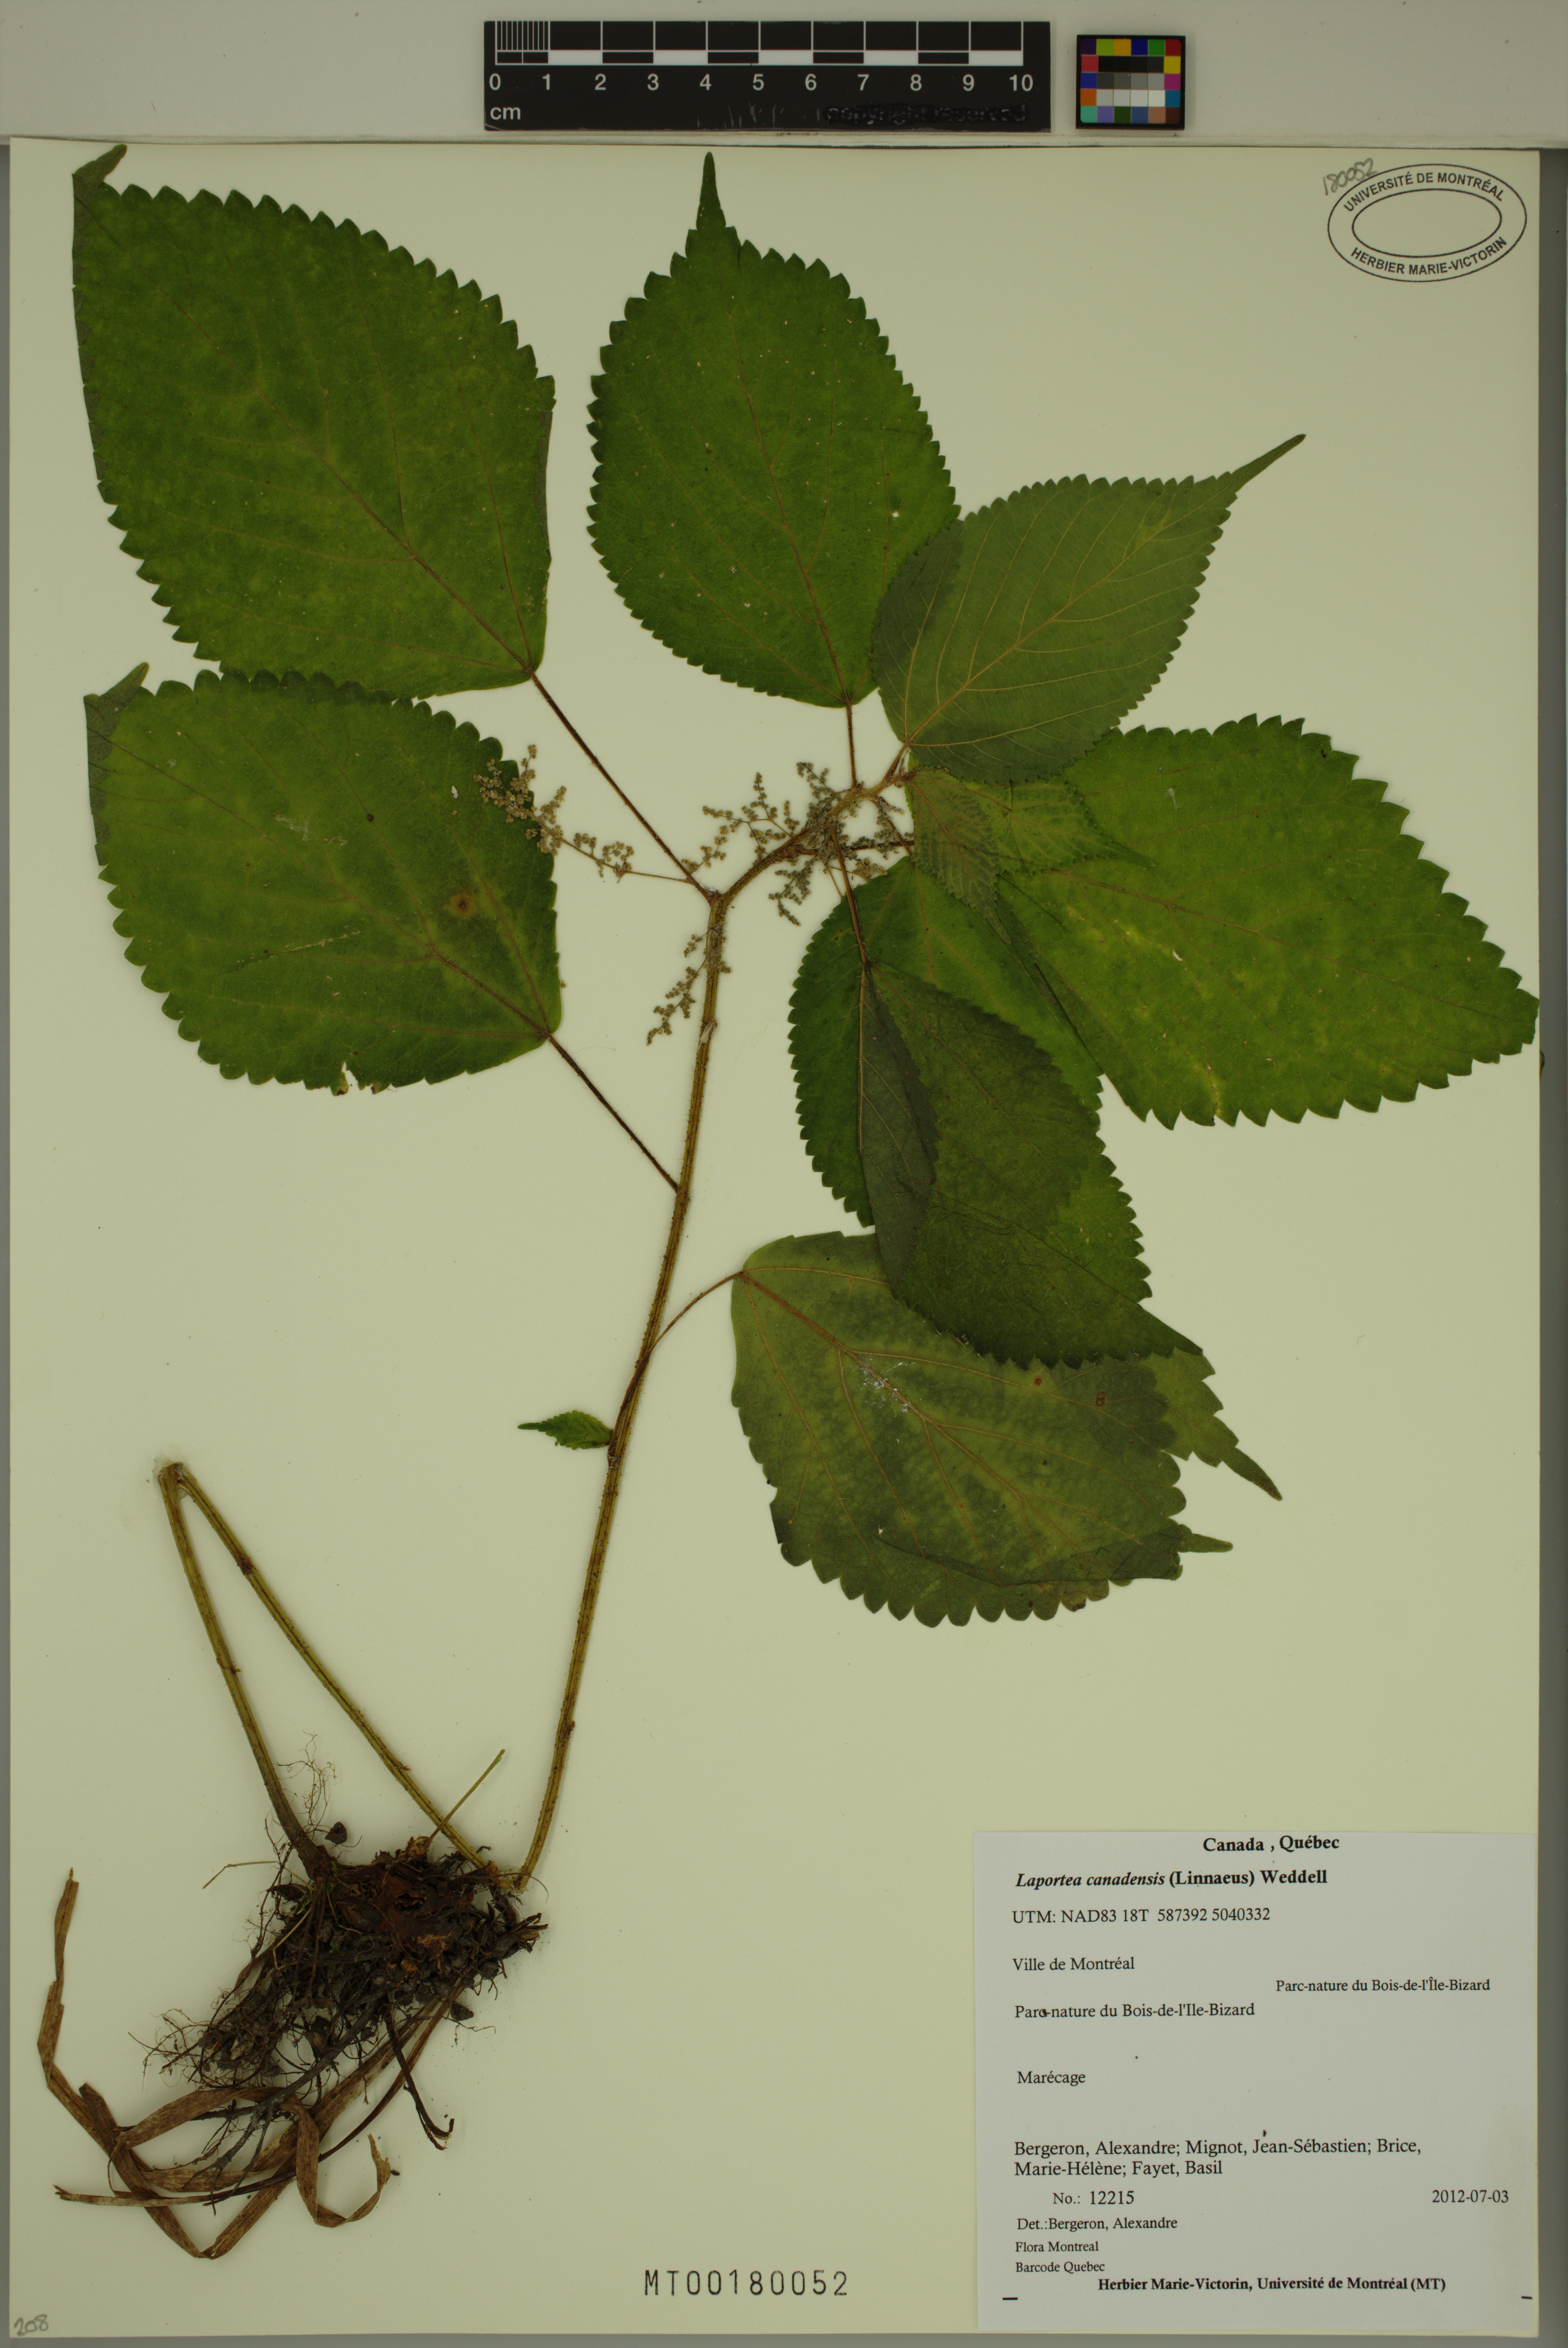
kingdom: Plantae
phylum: Tracheophyta
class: Magnoliopsida
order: Rosales
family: Urticaceae
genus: Laportea
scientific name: Laportea canadensis
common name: Canada nettle
